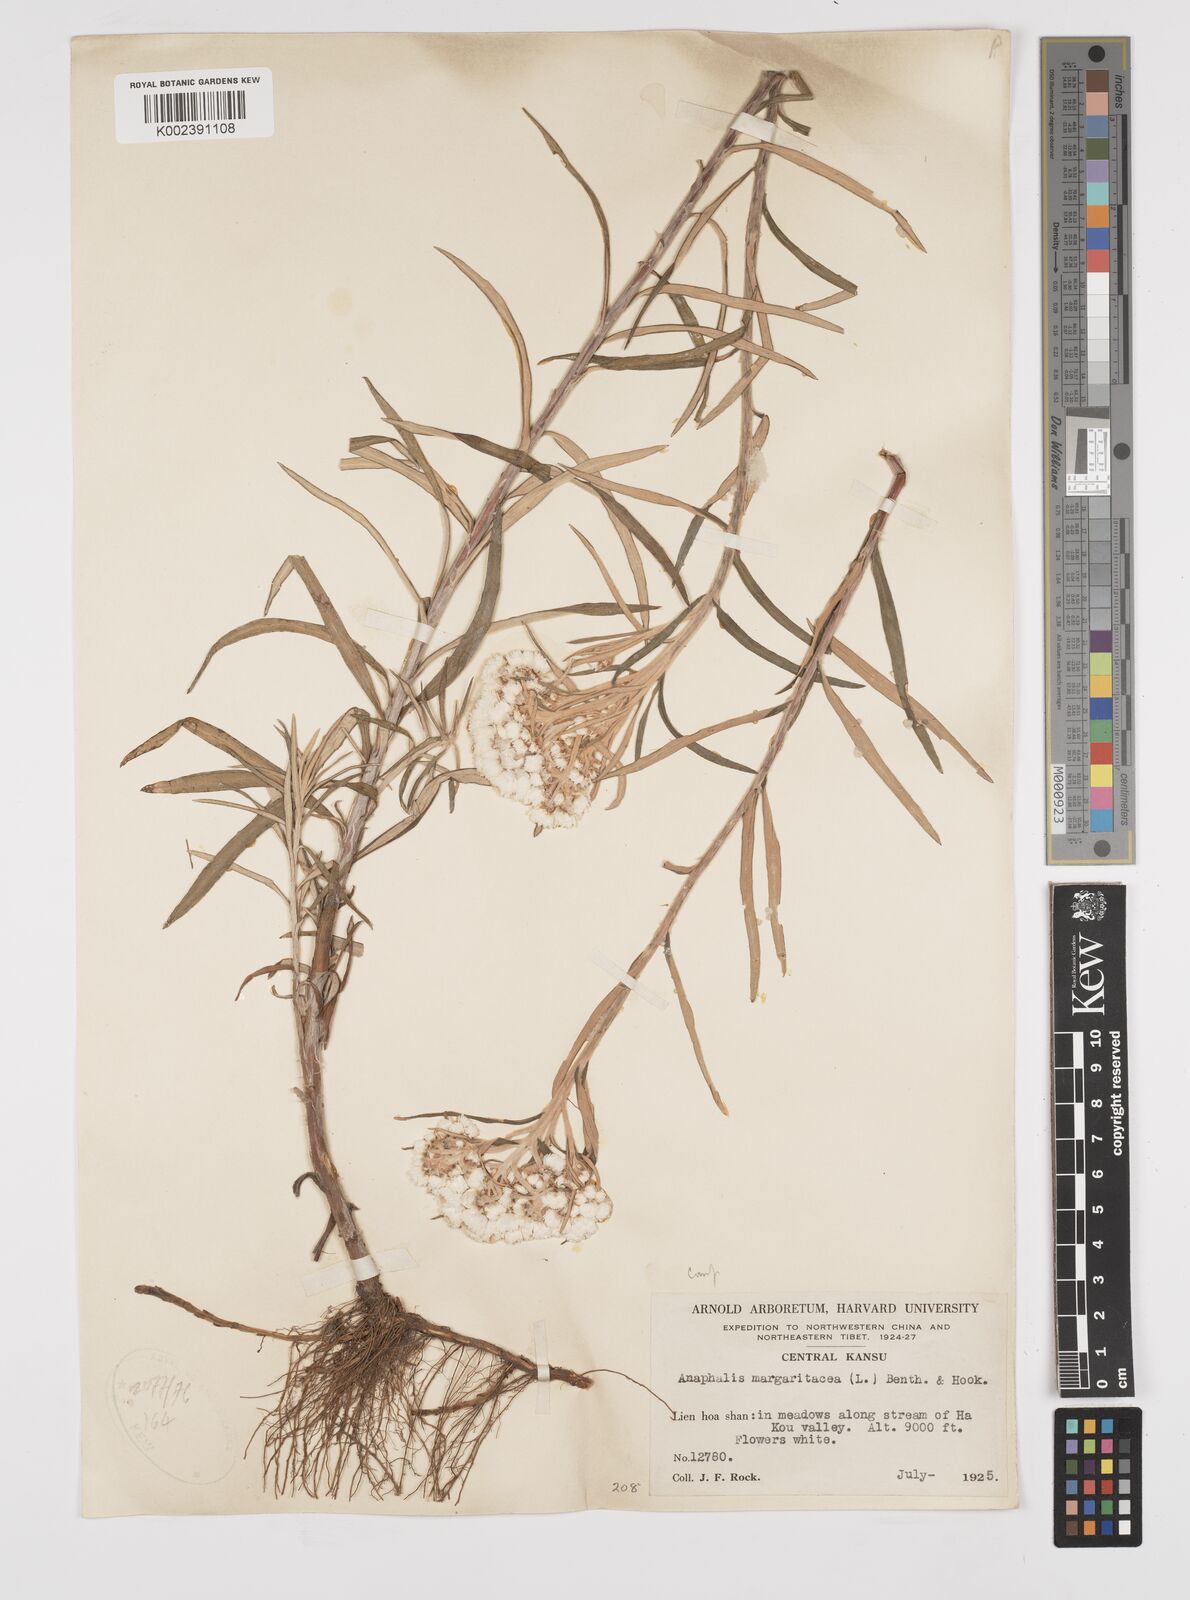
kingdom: Plantae
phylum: Tracheophyta
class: Magnoliopsida
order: Asterales
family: Asteraceae
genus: Anaphalis
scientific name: Anaphalis margaritacea
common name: Pearly everlasting
